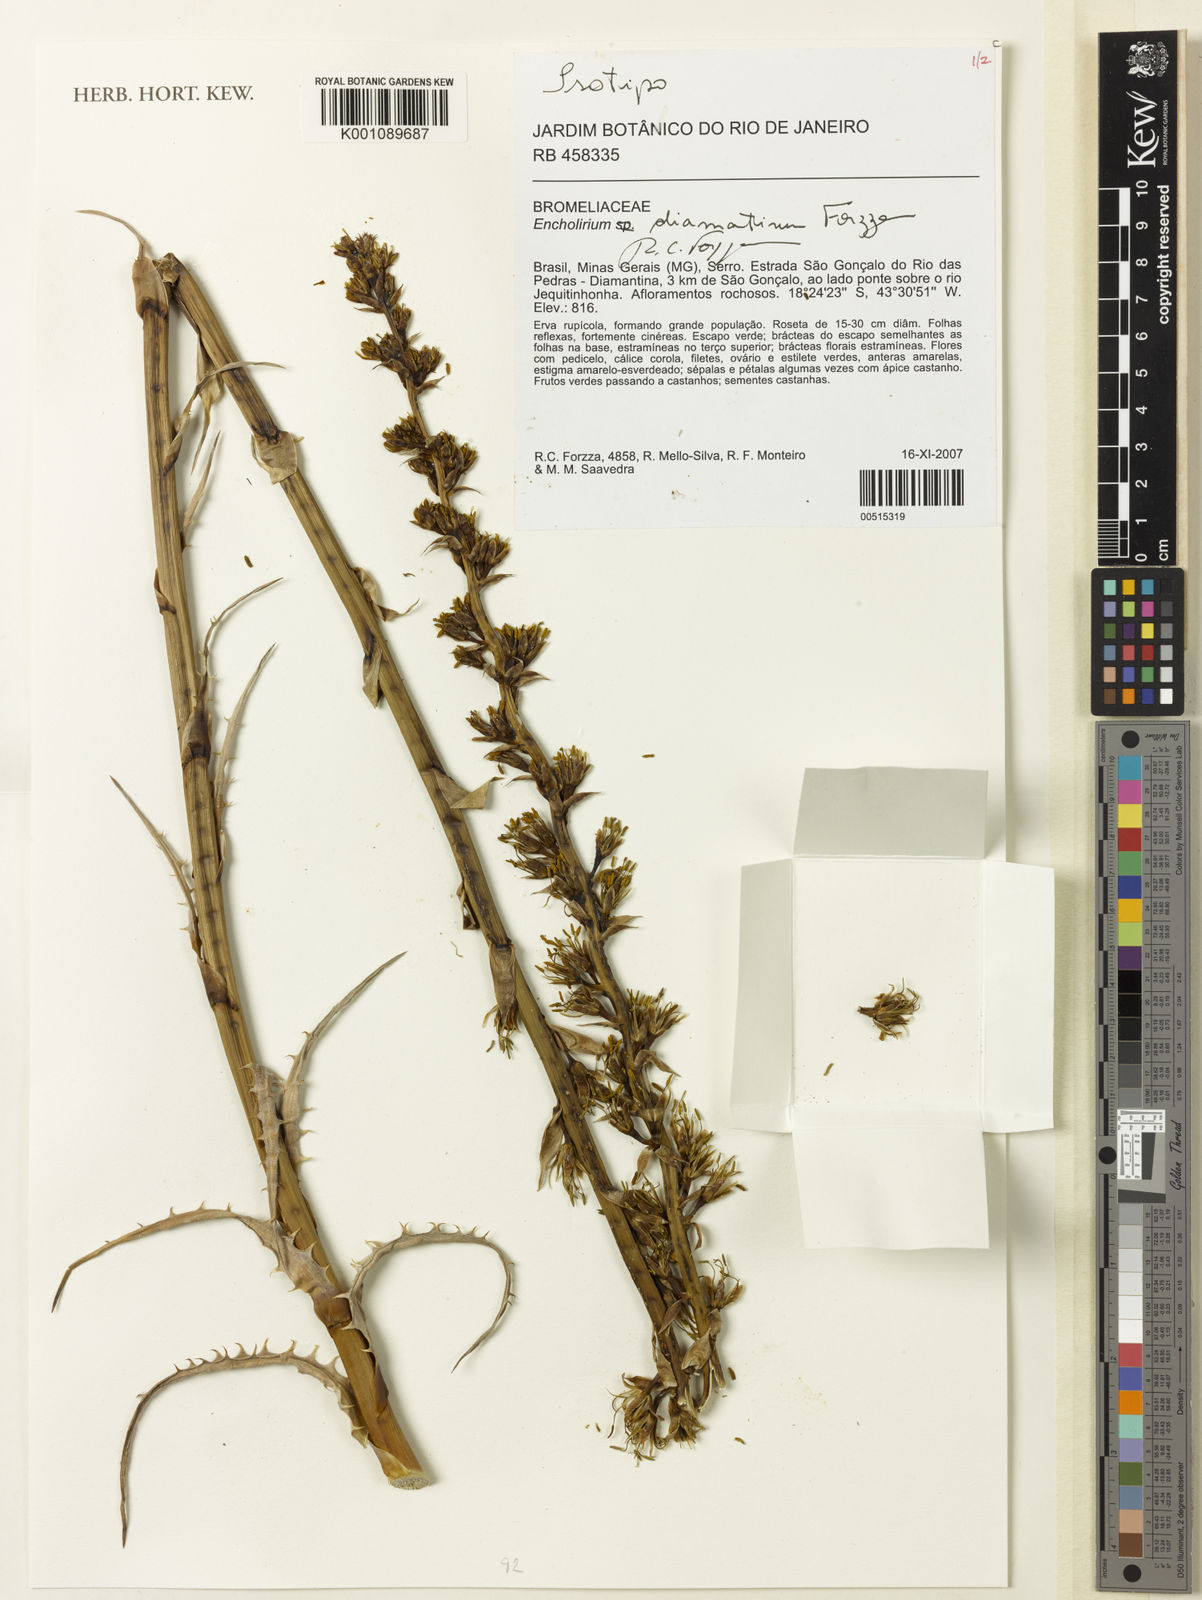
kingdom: Plantae
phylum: Tracheophyta
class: Liliopsida
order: Poales
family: Bromeliaceae
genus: Encholirium
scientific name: Encholirium diamantinum
